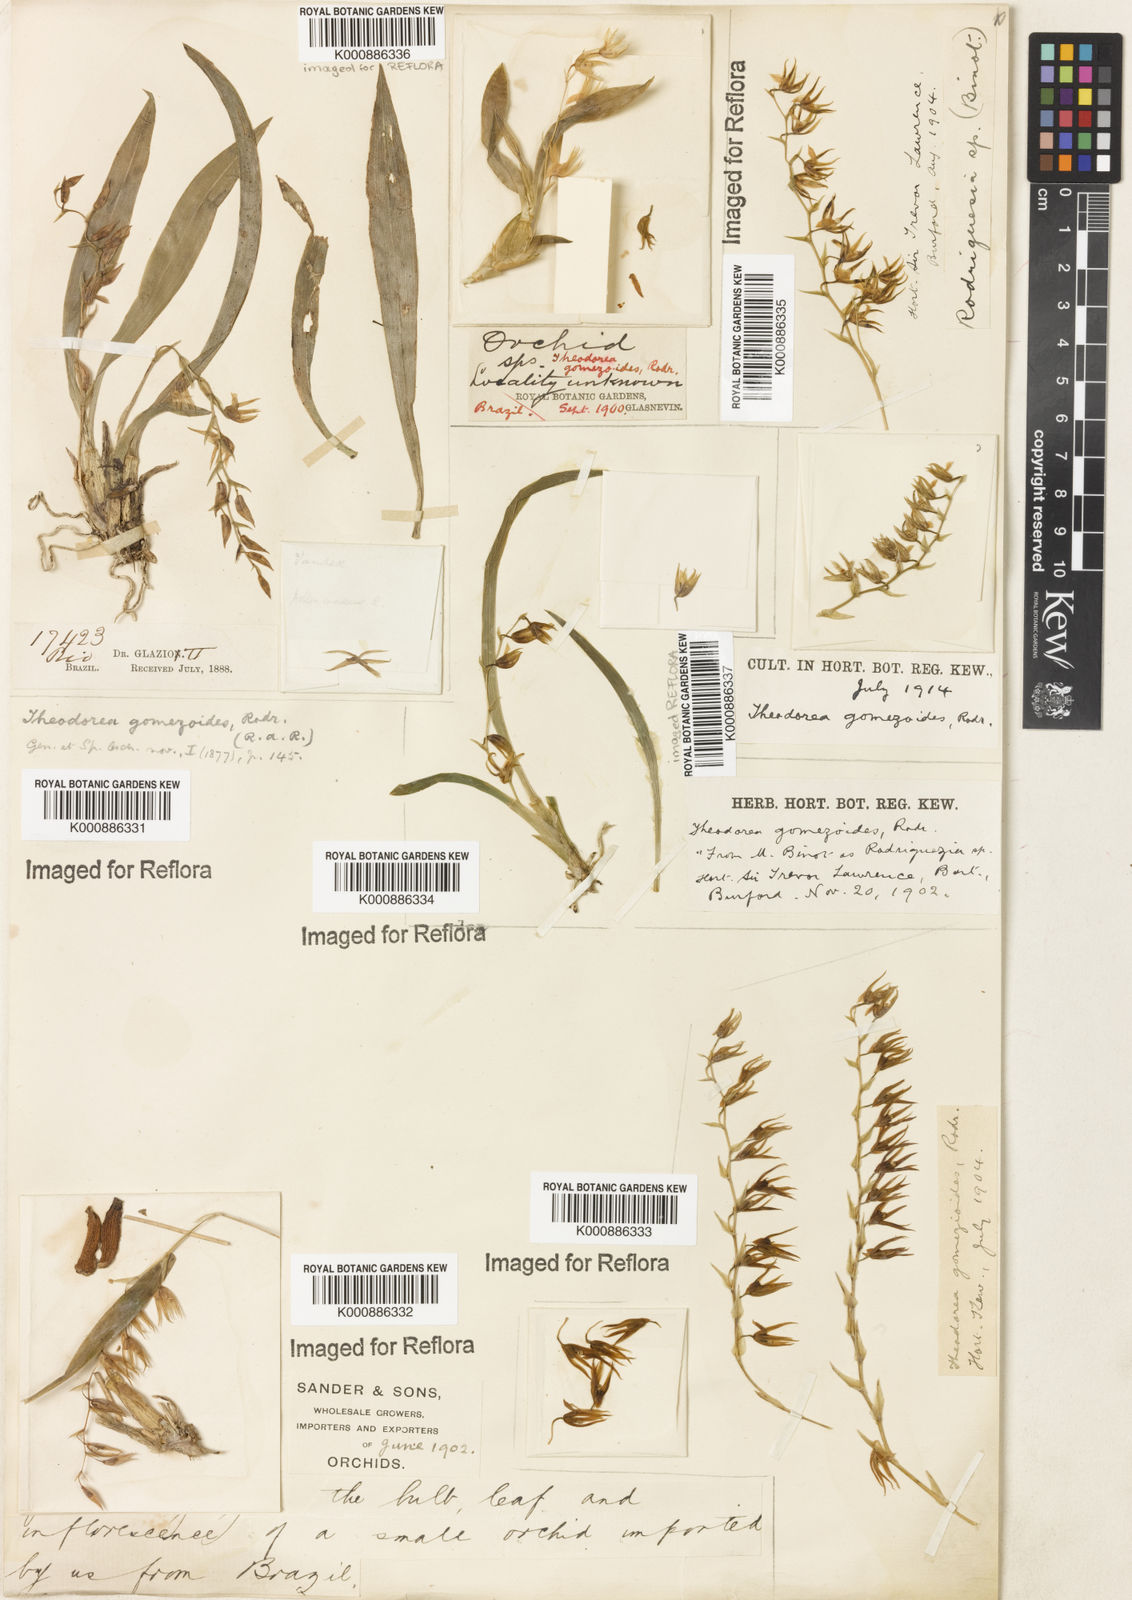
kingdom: Plantae
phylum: Tracheophyta
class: Liliopsida
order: Asparagales
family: Orchidaceae
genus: Gomesa
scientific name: Gomesa gomezoides
